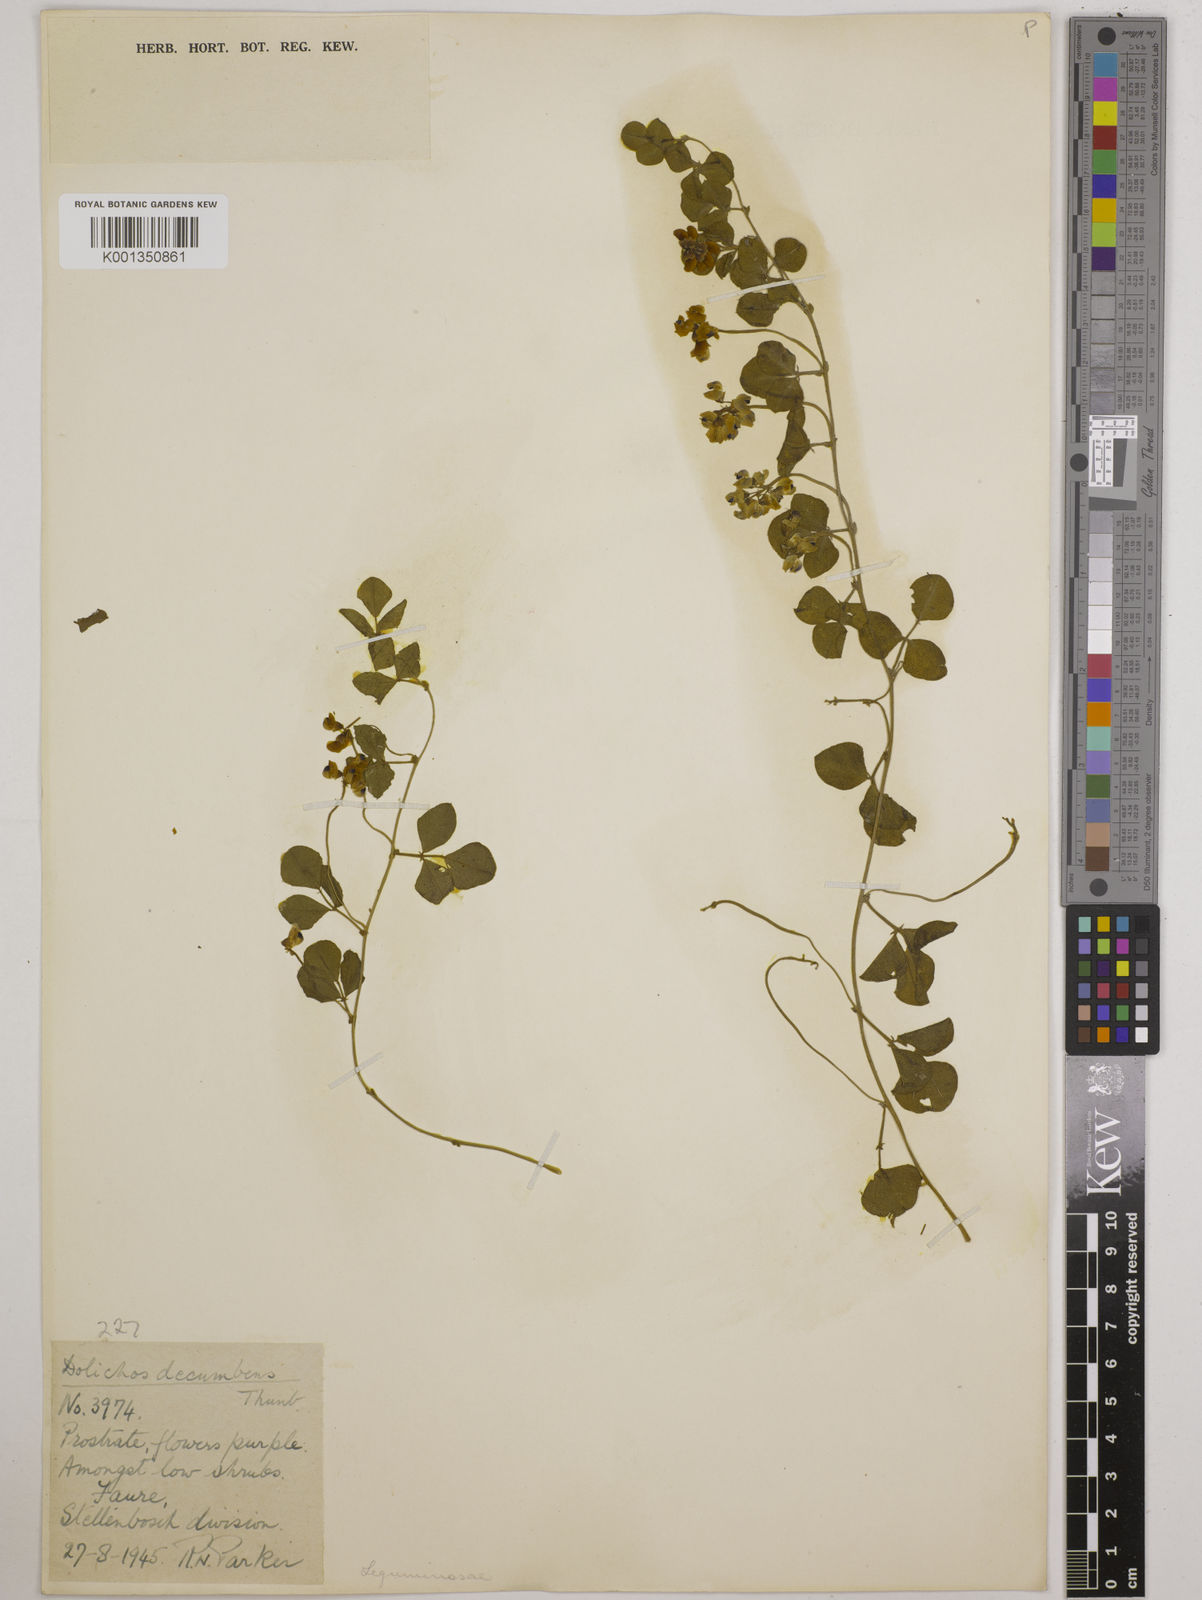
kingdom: Plantae
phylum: Tracheophyta
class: Magnoliopsida
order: Fabales
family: Fabaceae
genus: Dolichos
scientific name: Dolichos decumbens
